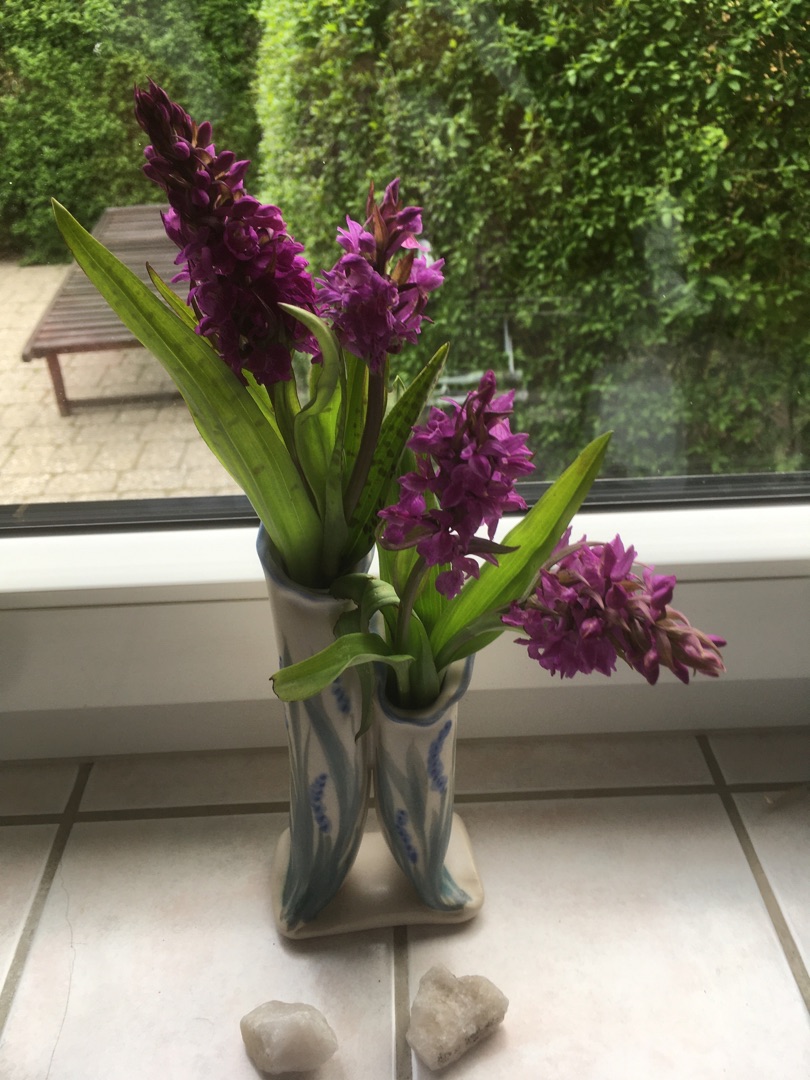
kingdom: Plantae
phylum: Tracheophyta
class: Liliopsida
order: Asparagales
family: Orchidaceae
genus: Dactylorhiza
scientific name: Dactylorhiza majalis
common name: Maj-gøgeurt
